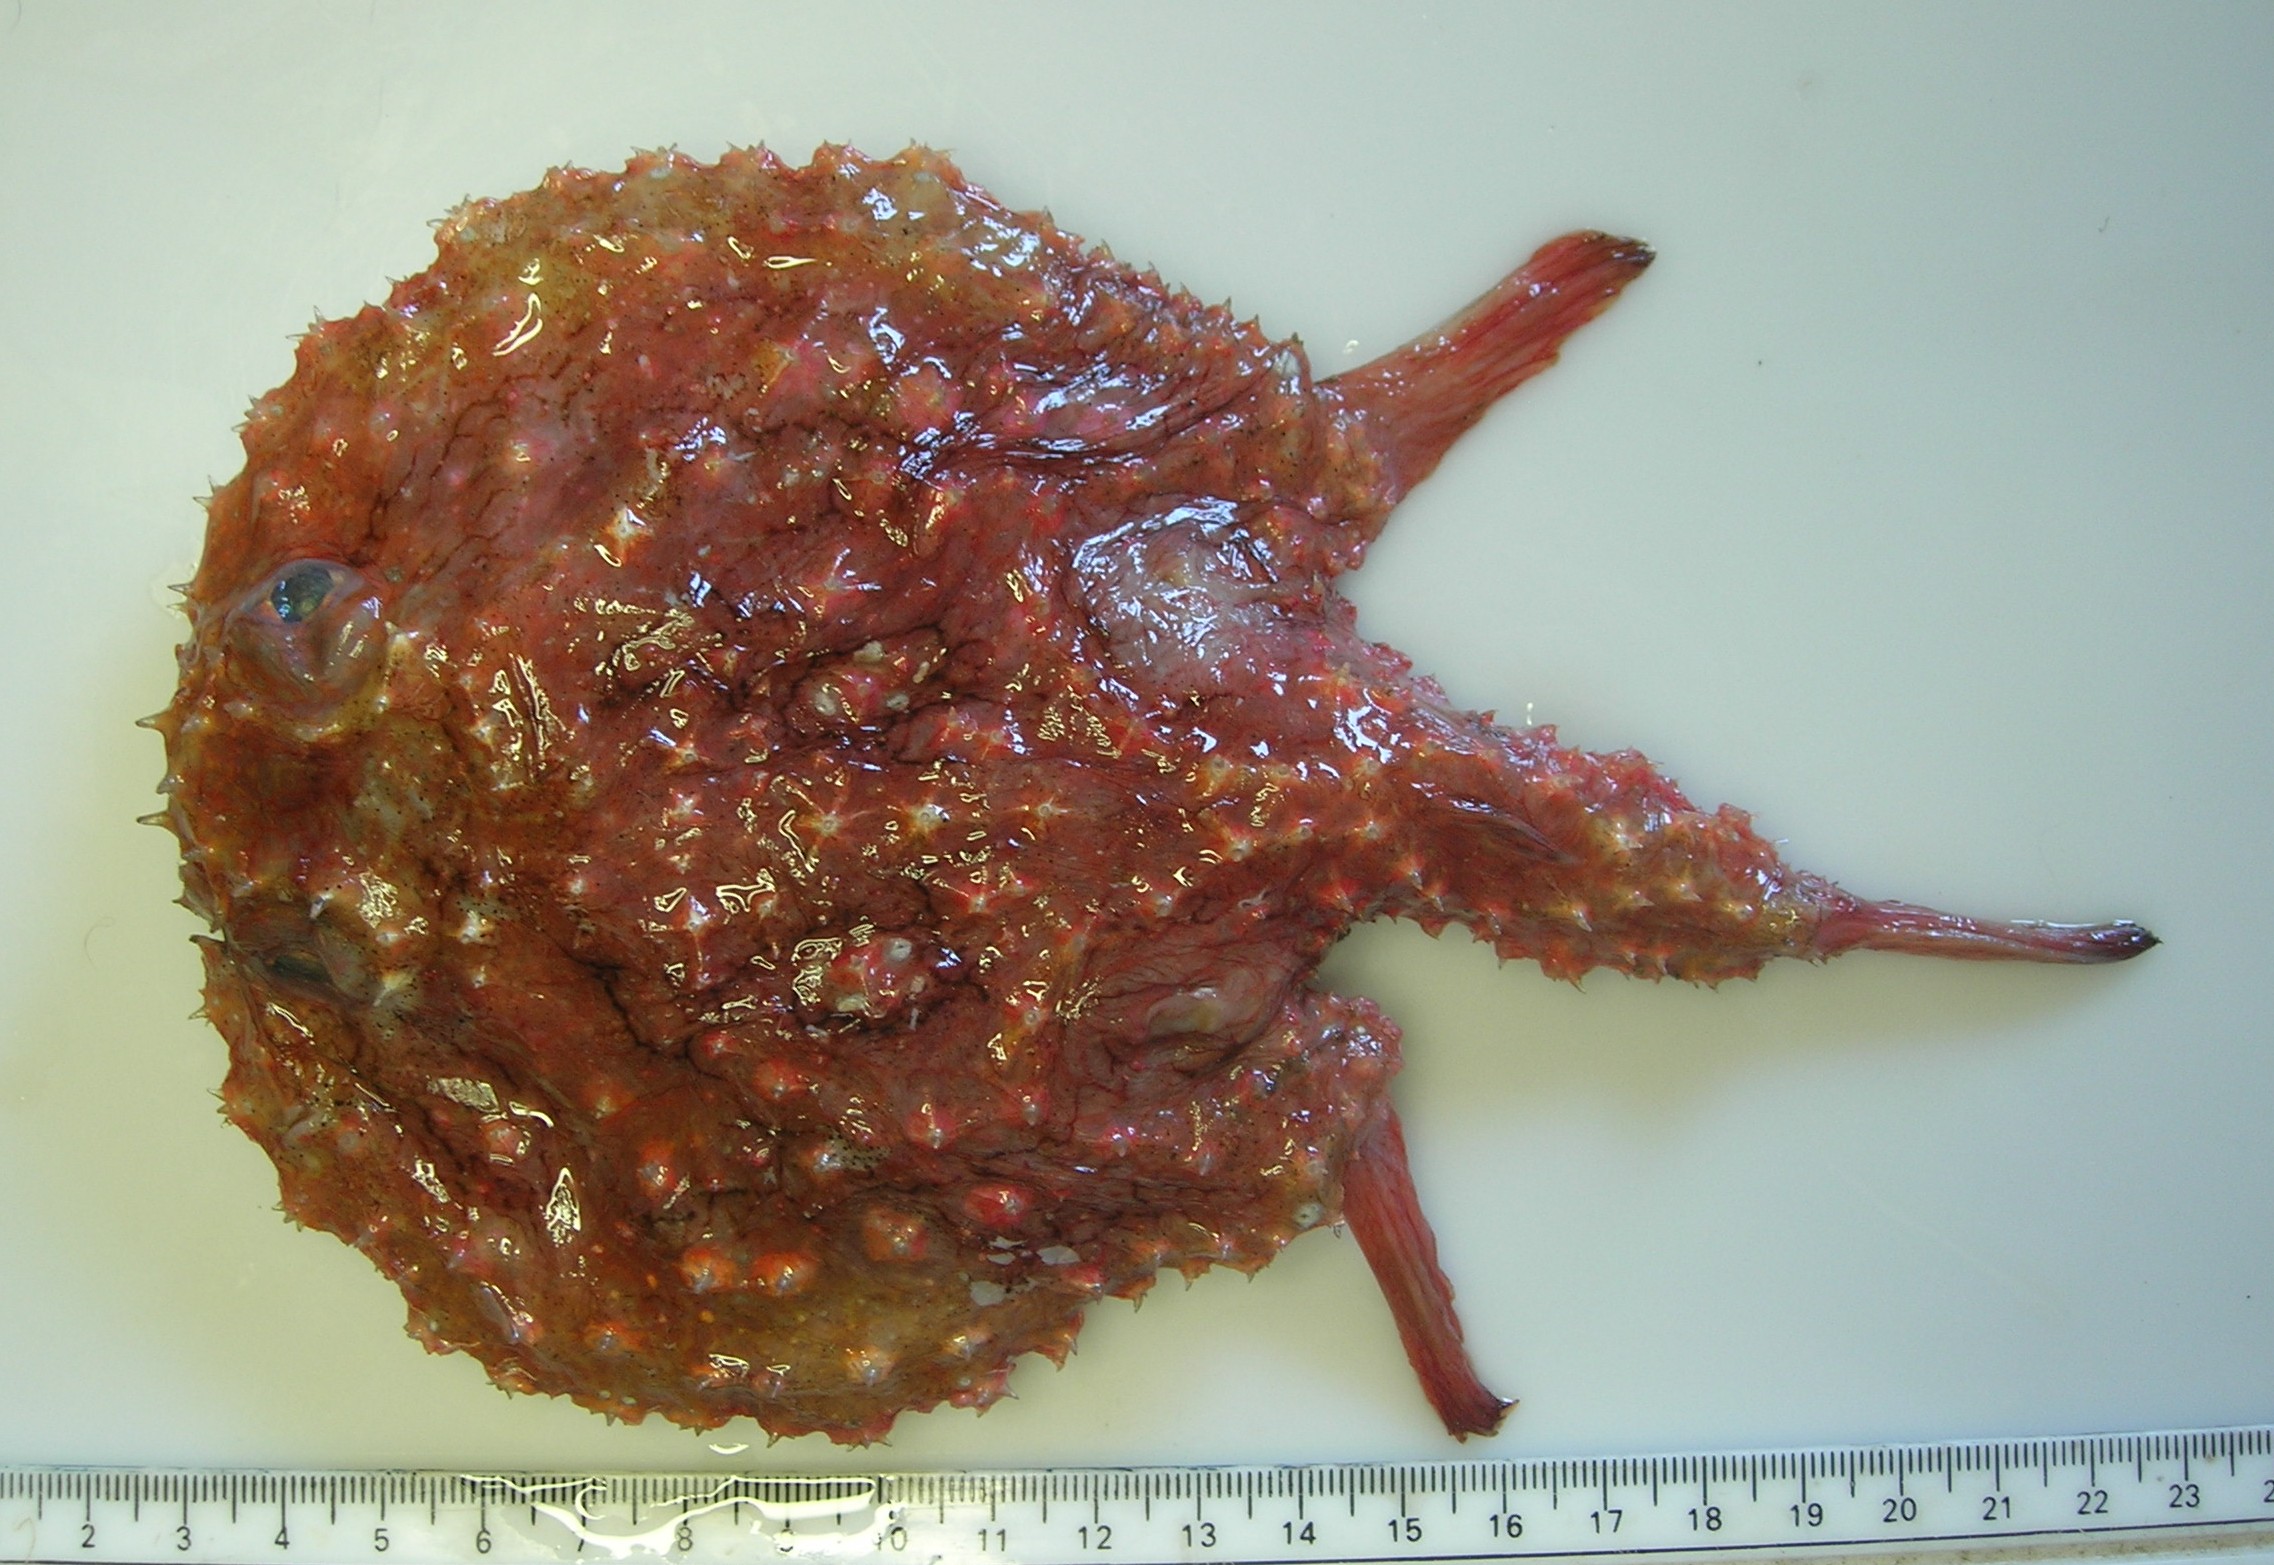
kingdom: Animalia
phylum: Chordata
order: Lophiiformes
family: Ogcocephalidae
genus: Halieutaea
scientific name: Halieutaea fitzsimonsi
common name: Circular seabat
